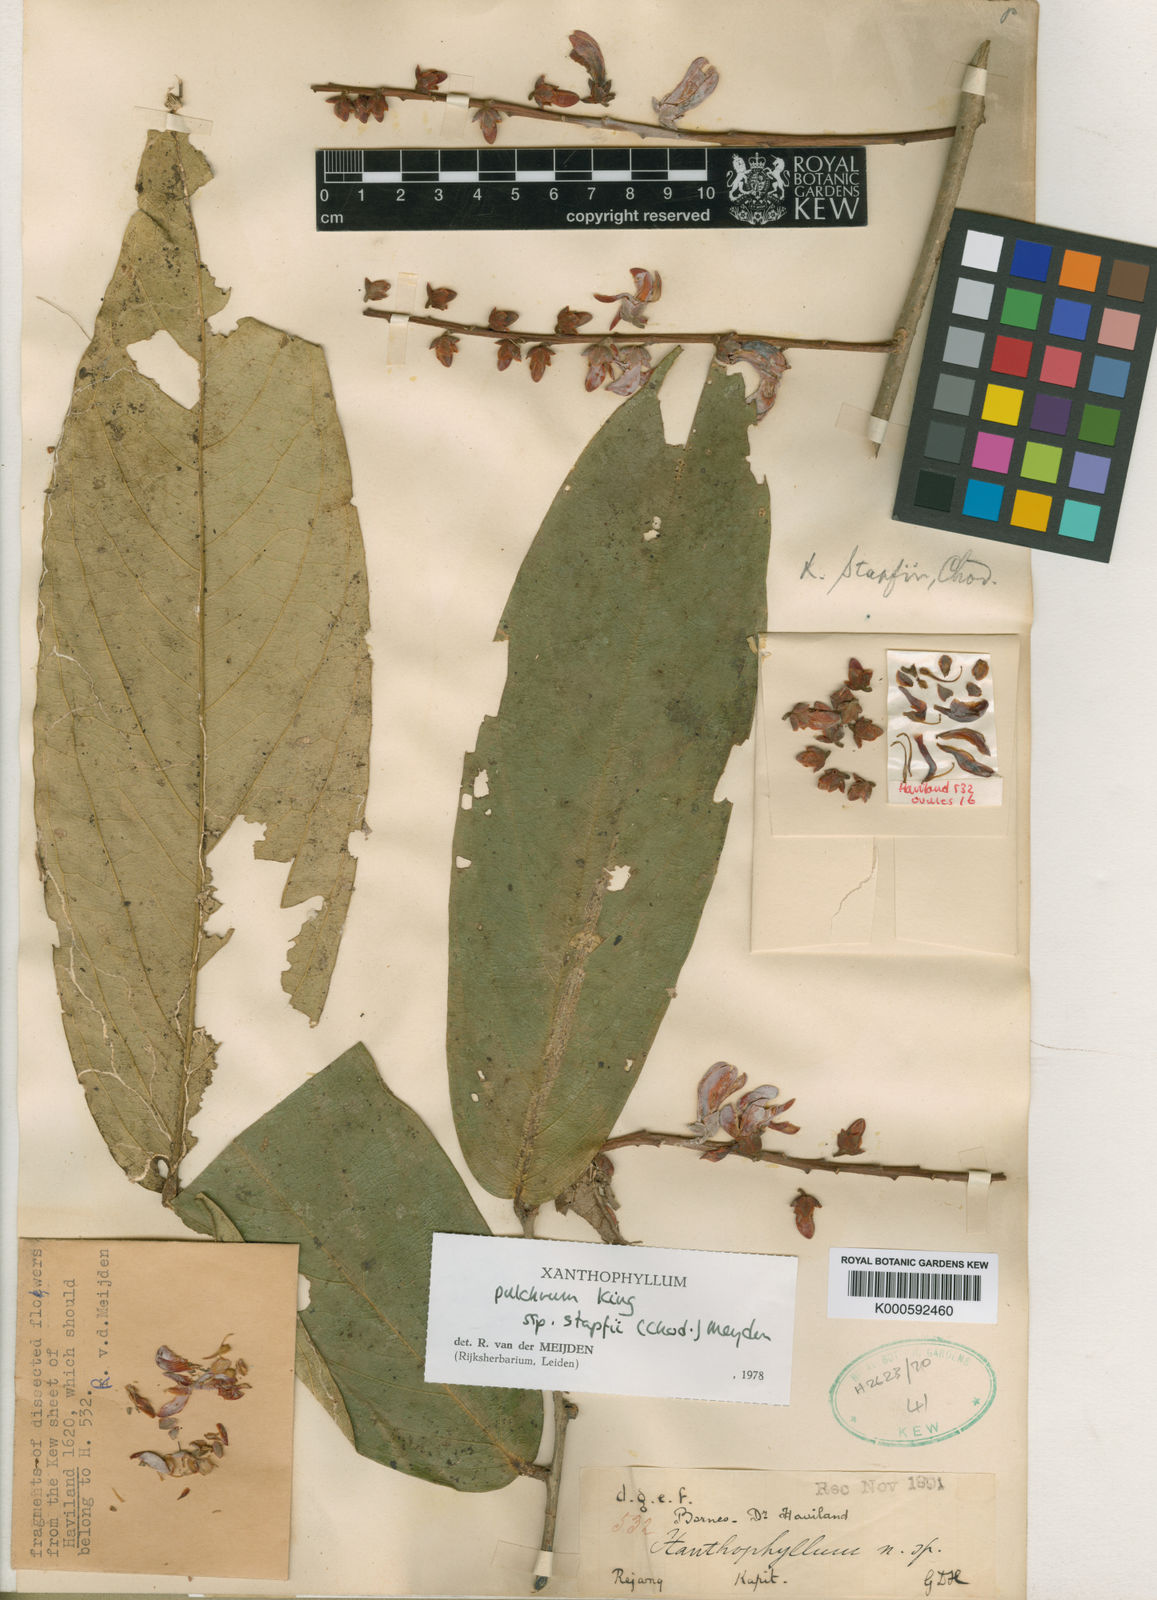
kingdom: Plantae
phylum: Tracheophyta
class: Magnoliopsida
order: Fabales
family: Polygalaceae
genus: Xanthophyllum
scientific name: Xanthophyllum pulchrum
